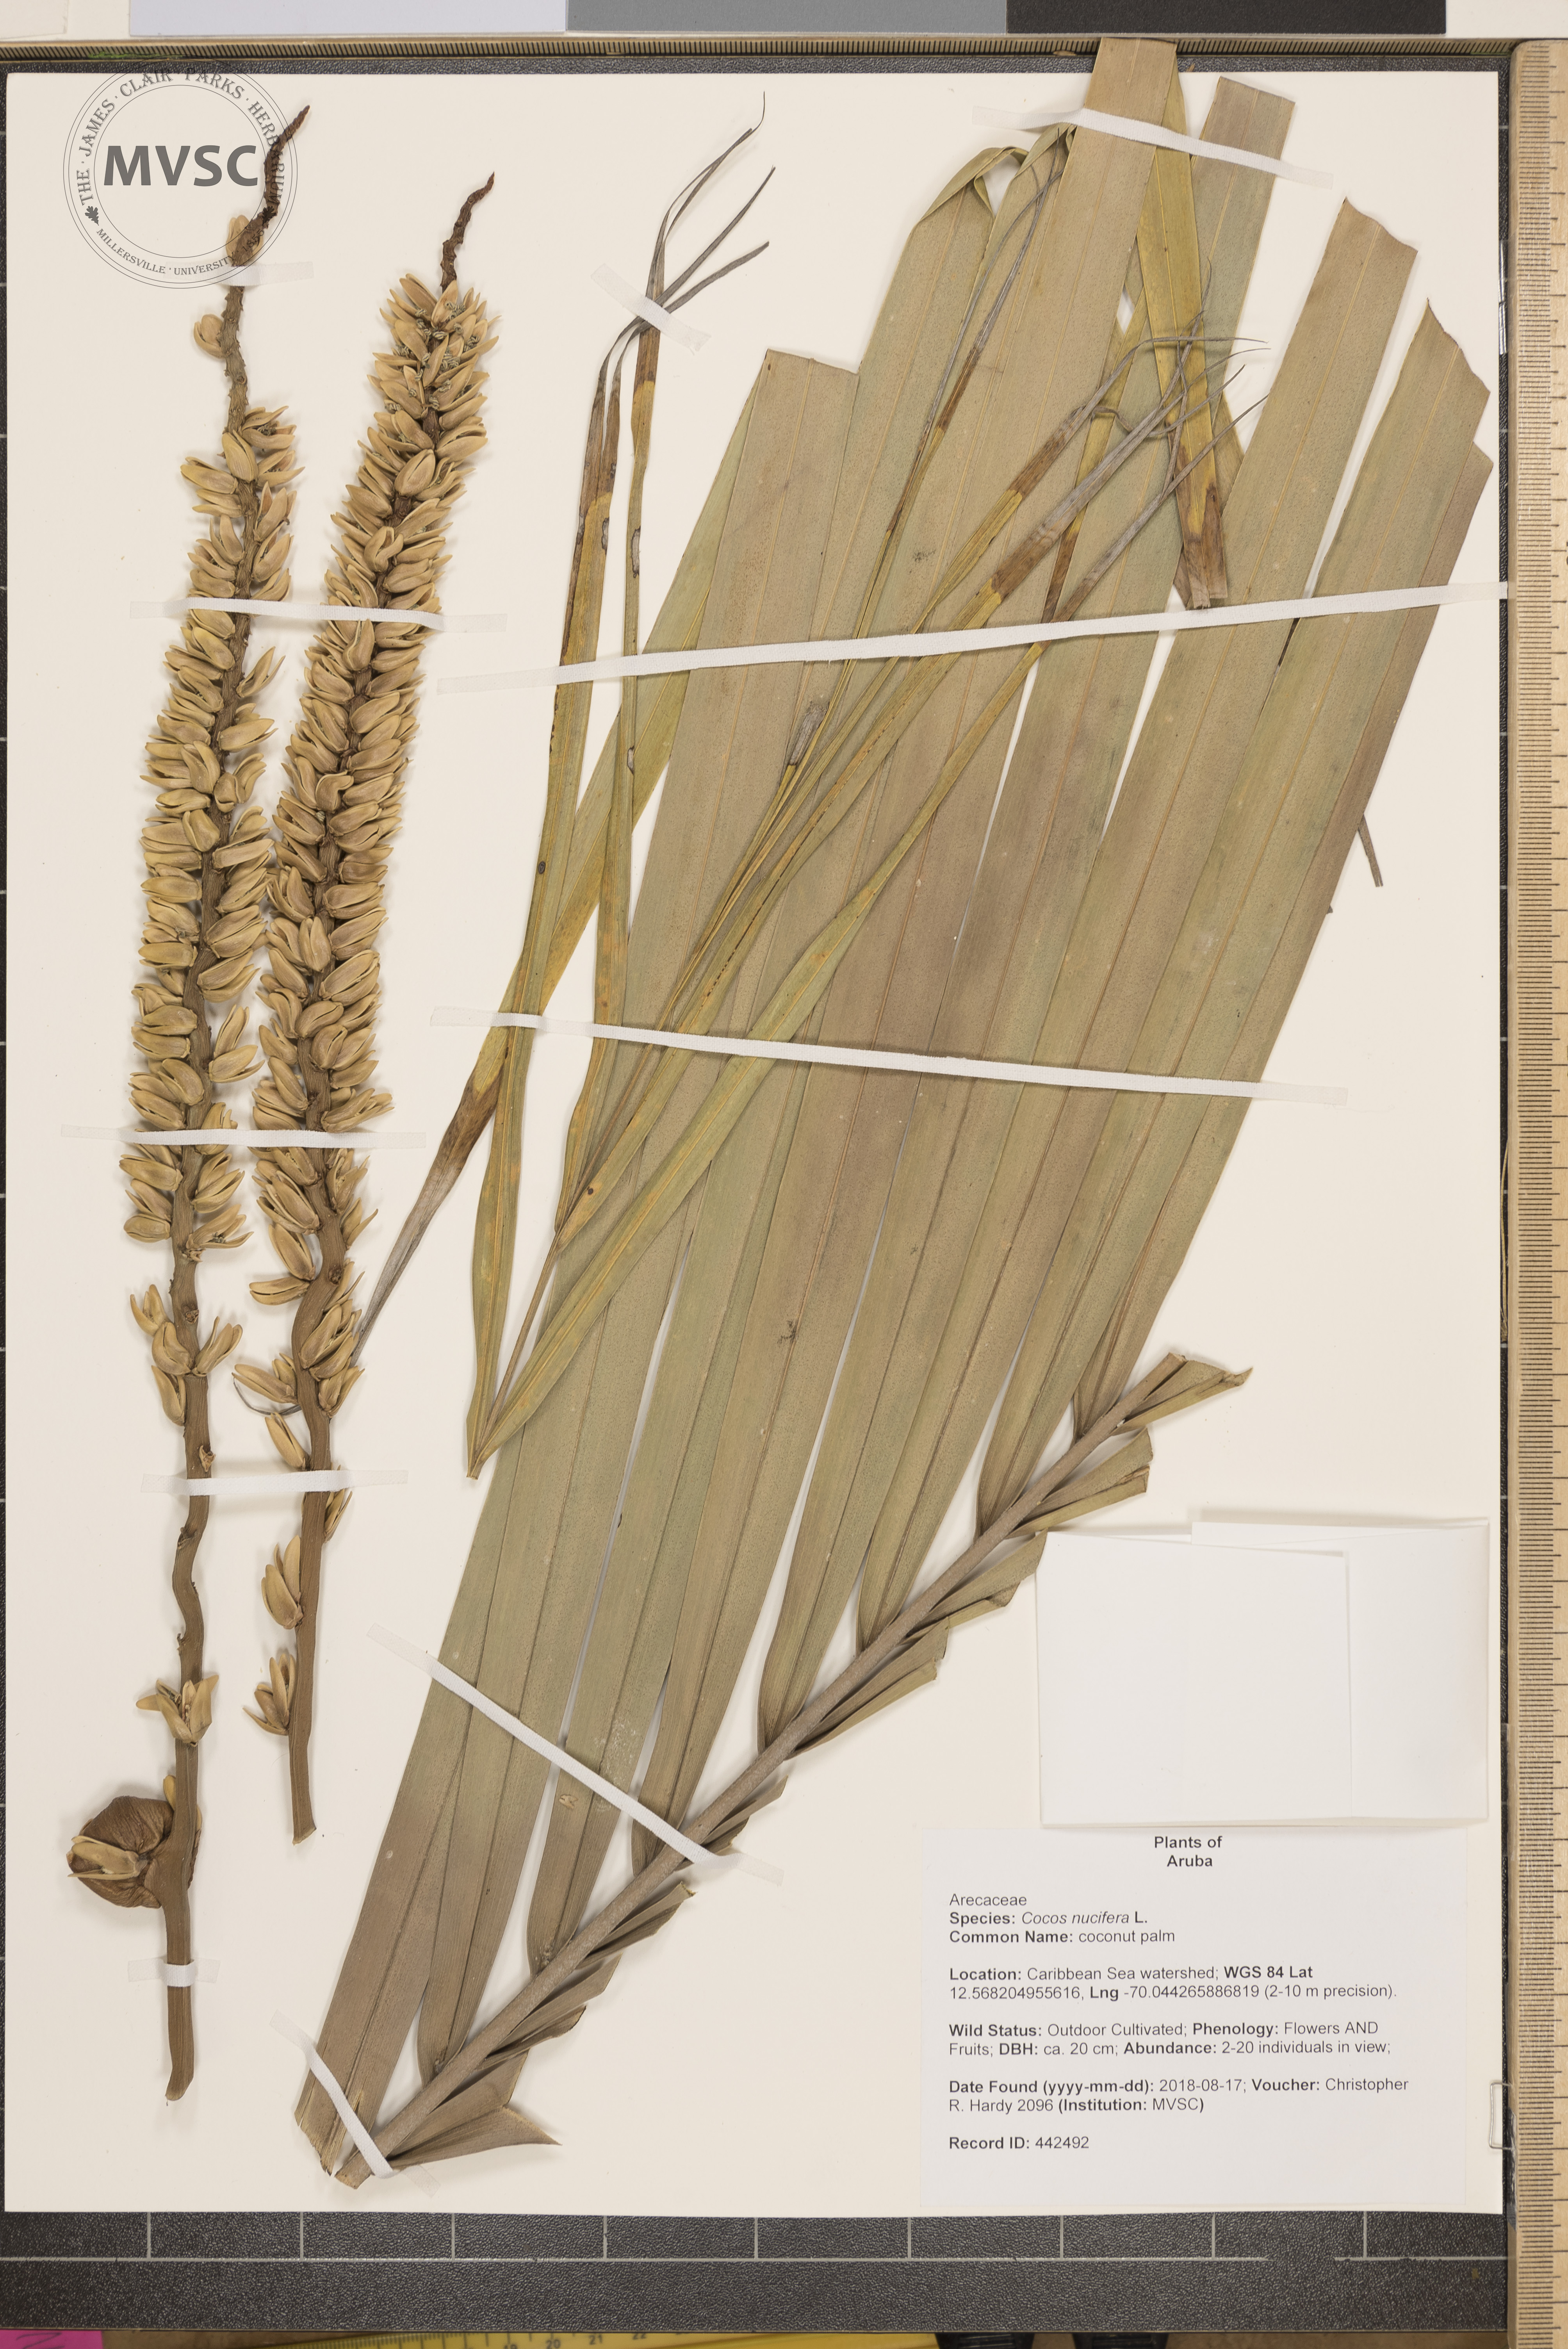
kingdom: Plantae
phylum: Tracheophyta
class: Liliopsida
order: Arecales
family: Arecaceae
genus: Cocos
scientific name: Cocos nucifera
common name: coconut palm
